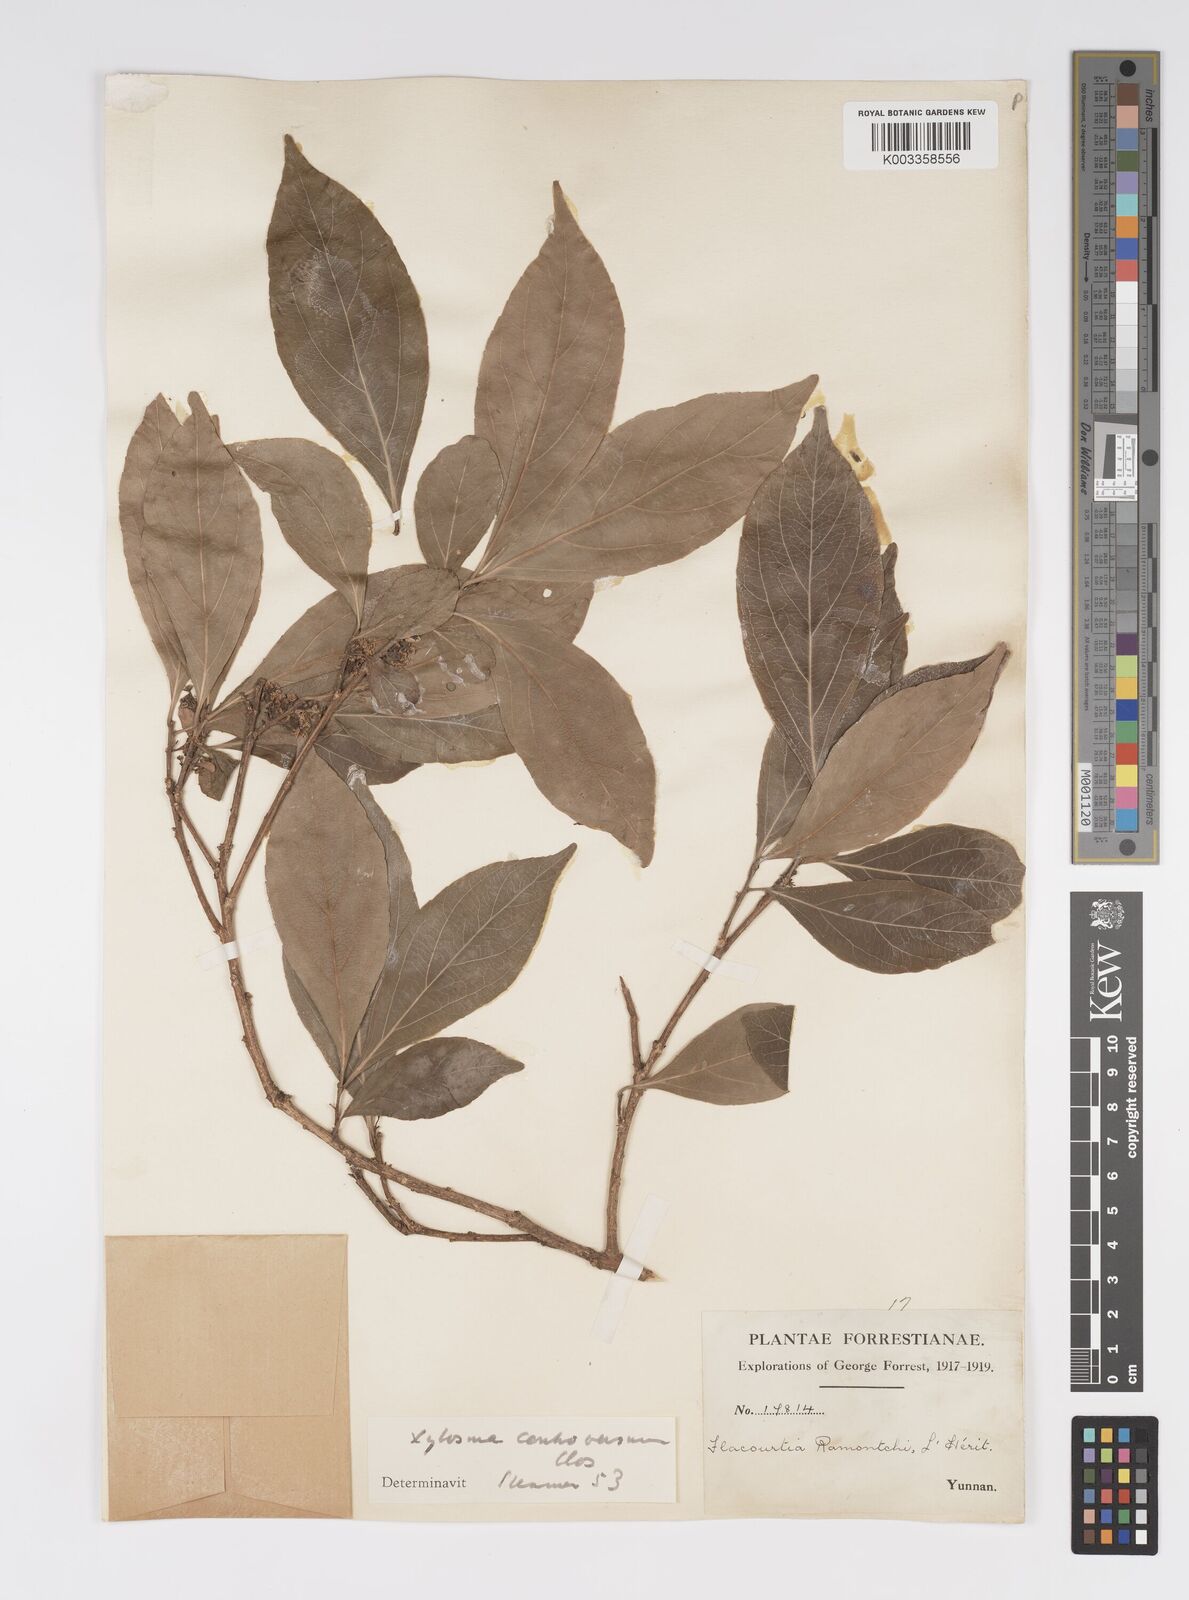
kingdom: Plantae
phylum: Tracheophyta
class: Magnoliopsida
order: Malpighiales
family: Salicaceae
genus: Xylosma
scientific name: Xylosma controversa
